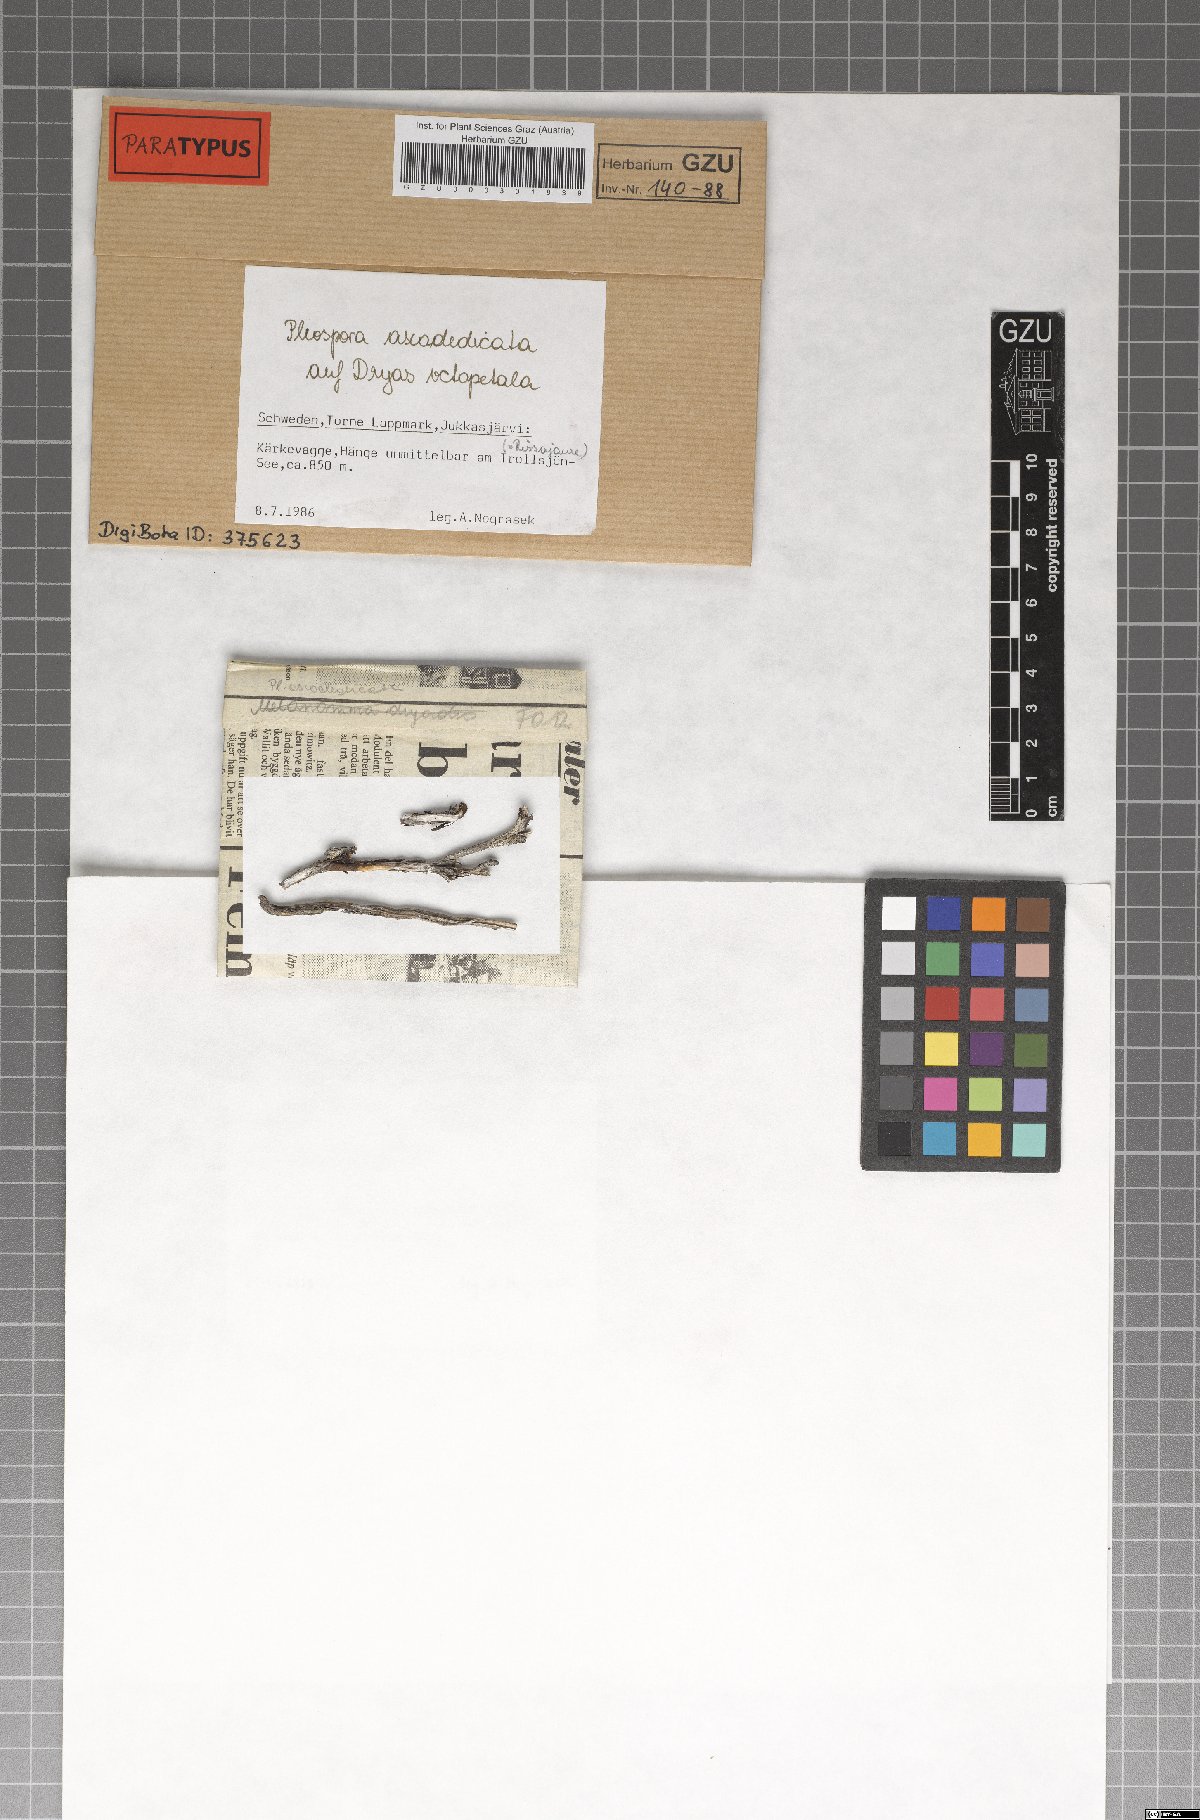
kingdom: Fungi
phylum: Ascomycota
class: Dothideomycetes
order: Pleosporales
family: Pleosporaceae
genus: Pleospora
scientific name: Pleospora ascodedicata
